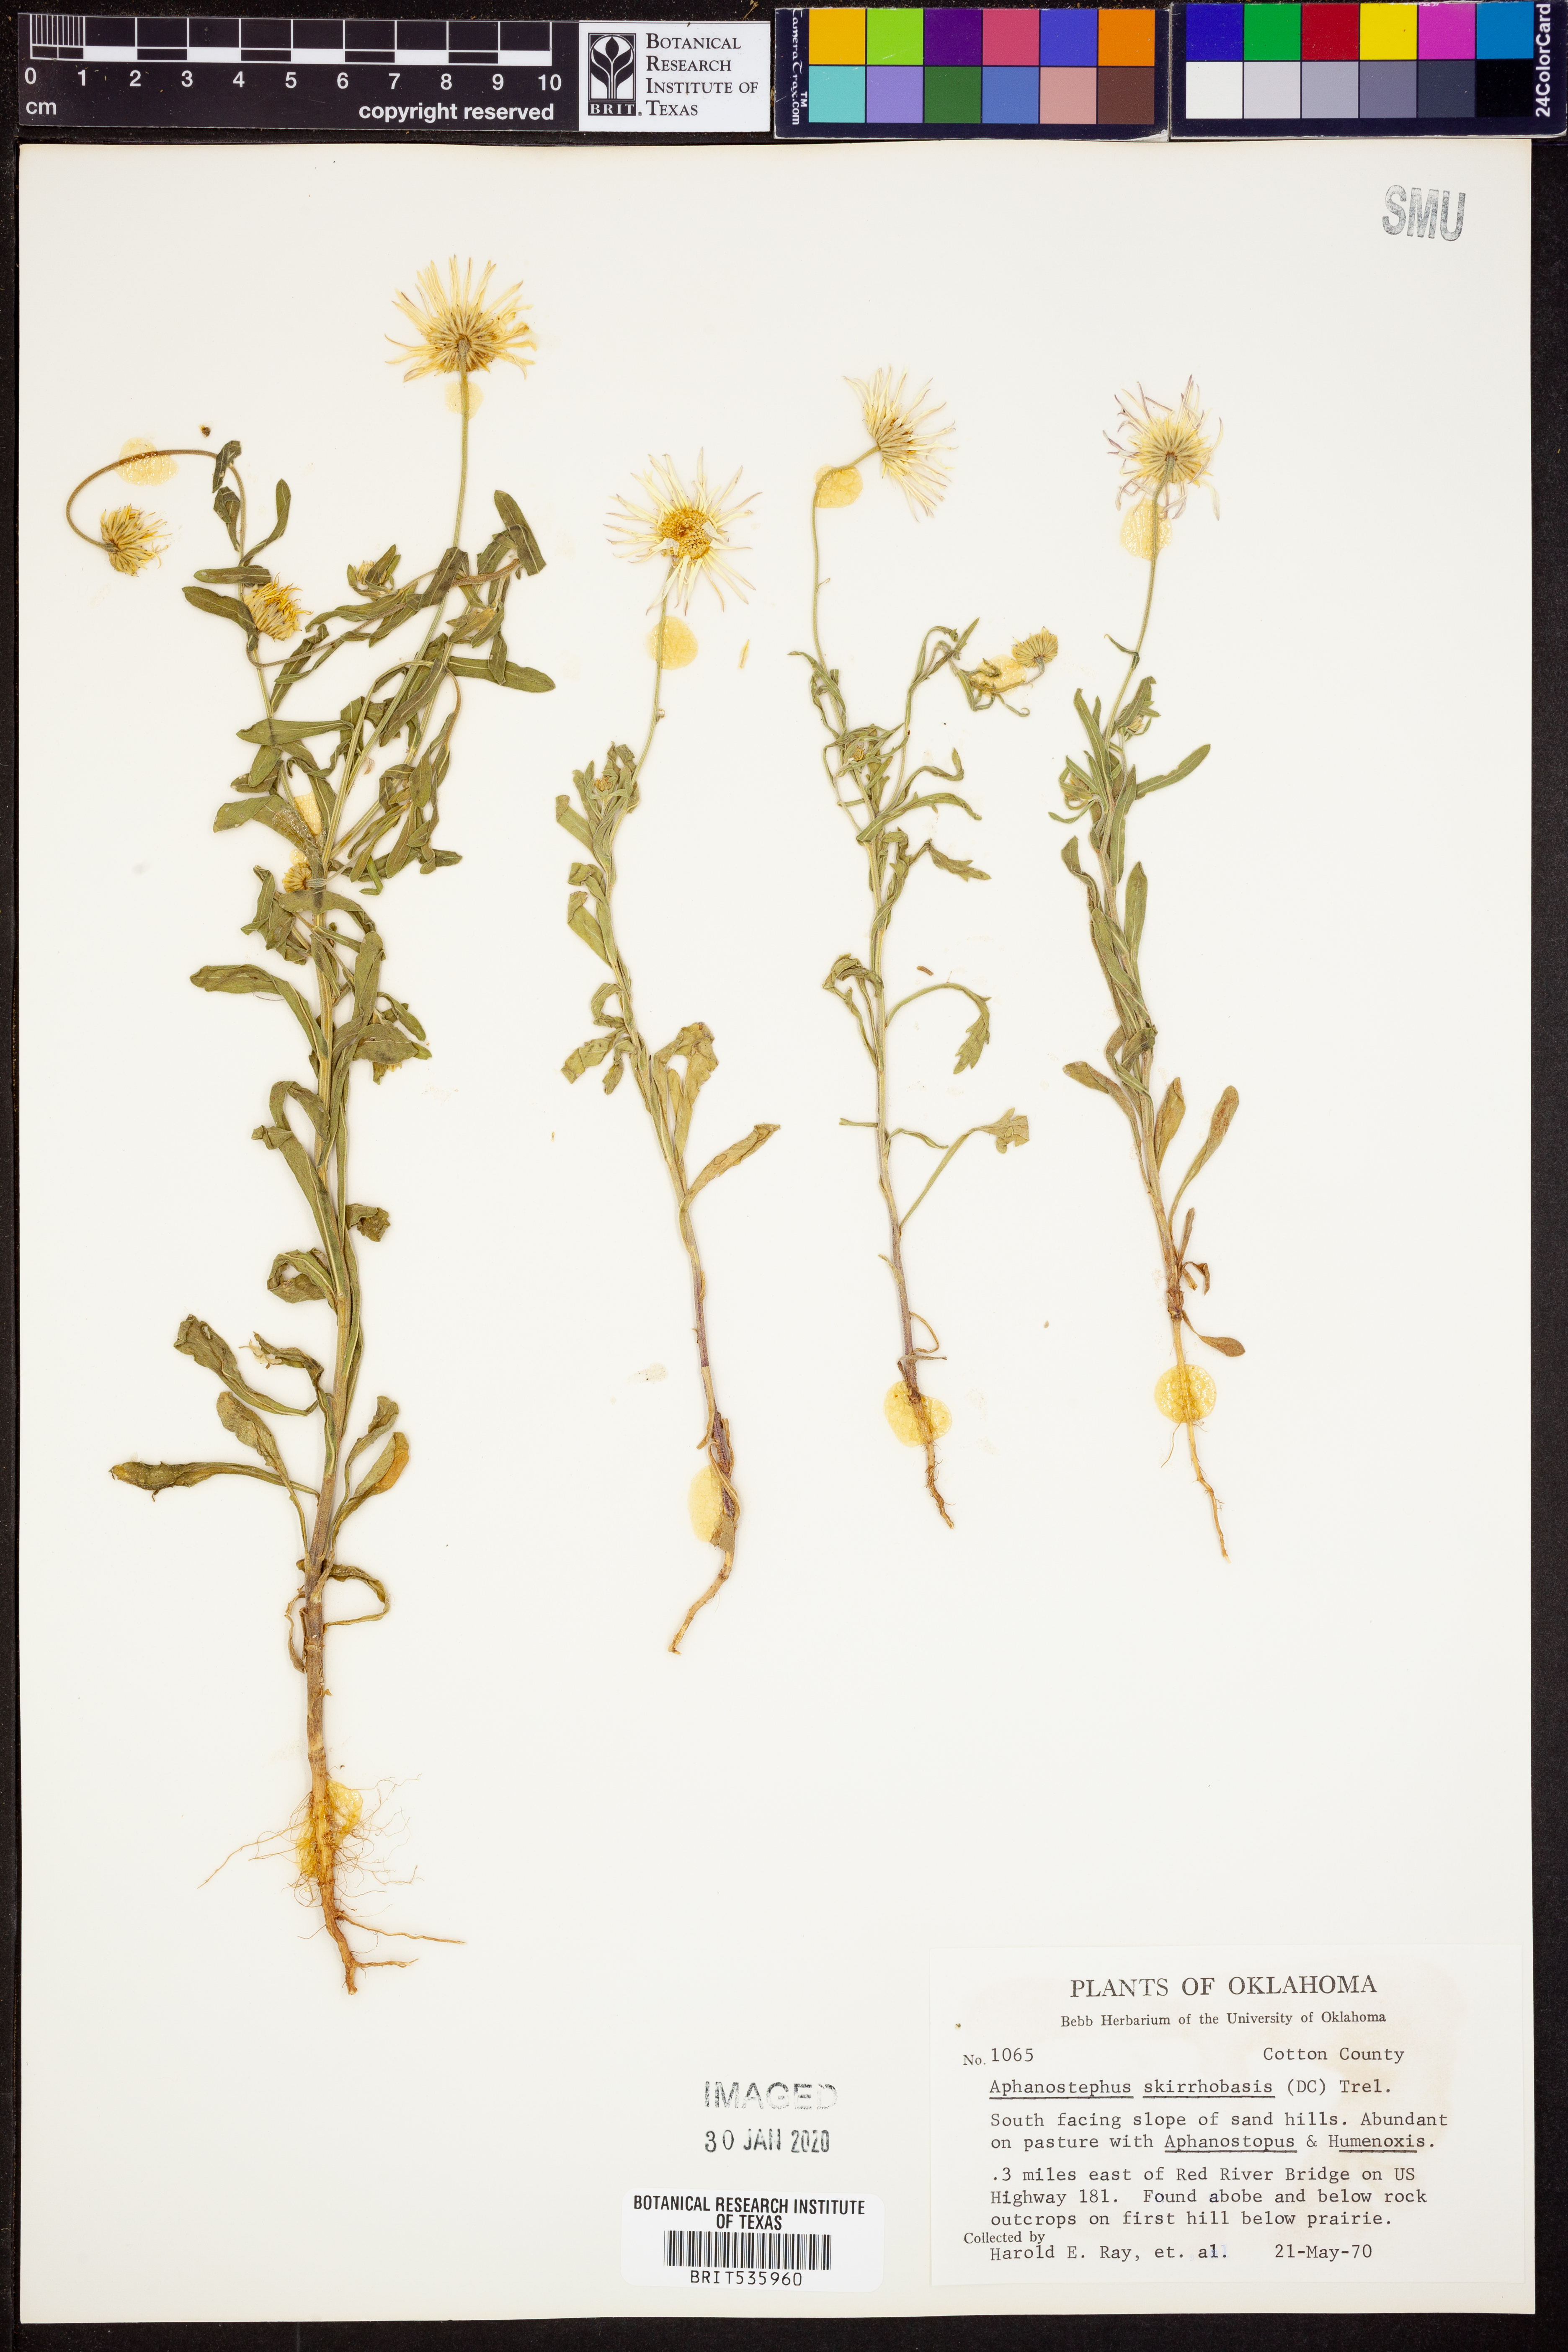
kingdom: Plantae
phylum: Tracheophyta
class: Magnoliopsida
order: Asterales
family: Asteraceae
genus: Aphanostephus
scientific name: Aphanostephus skirrhobasis
